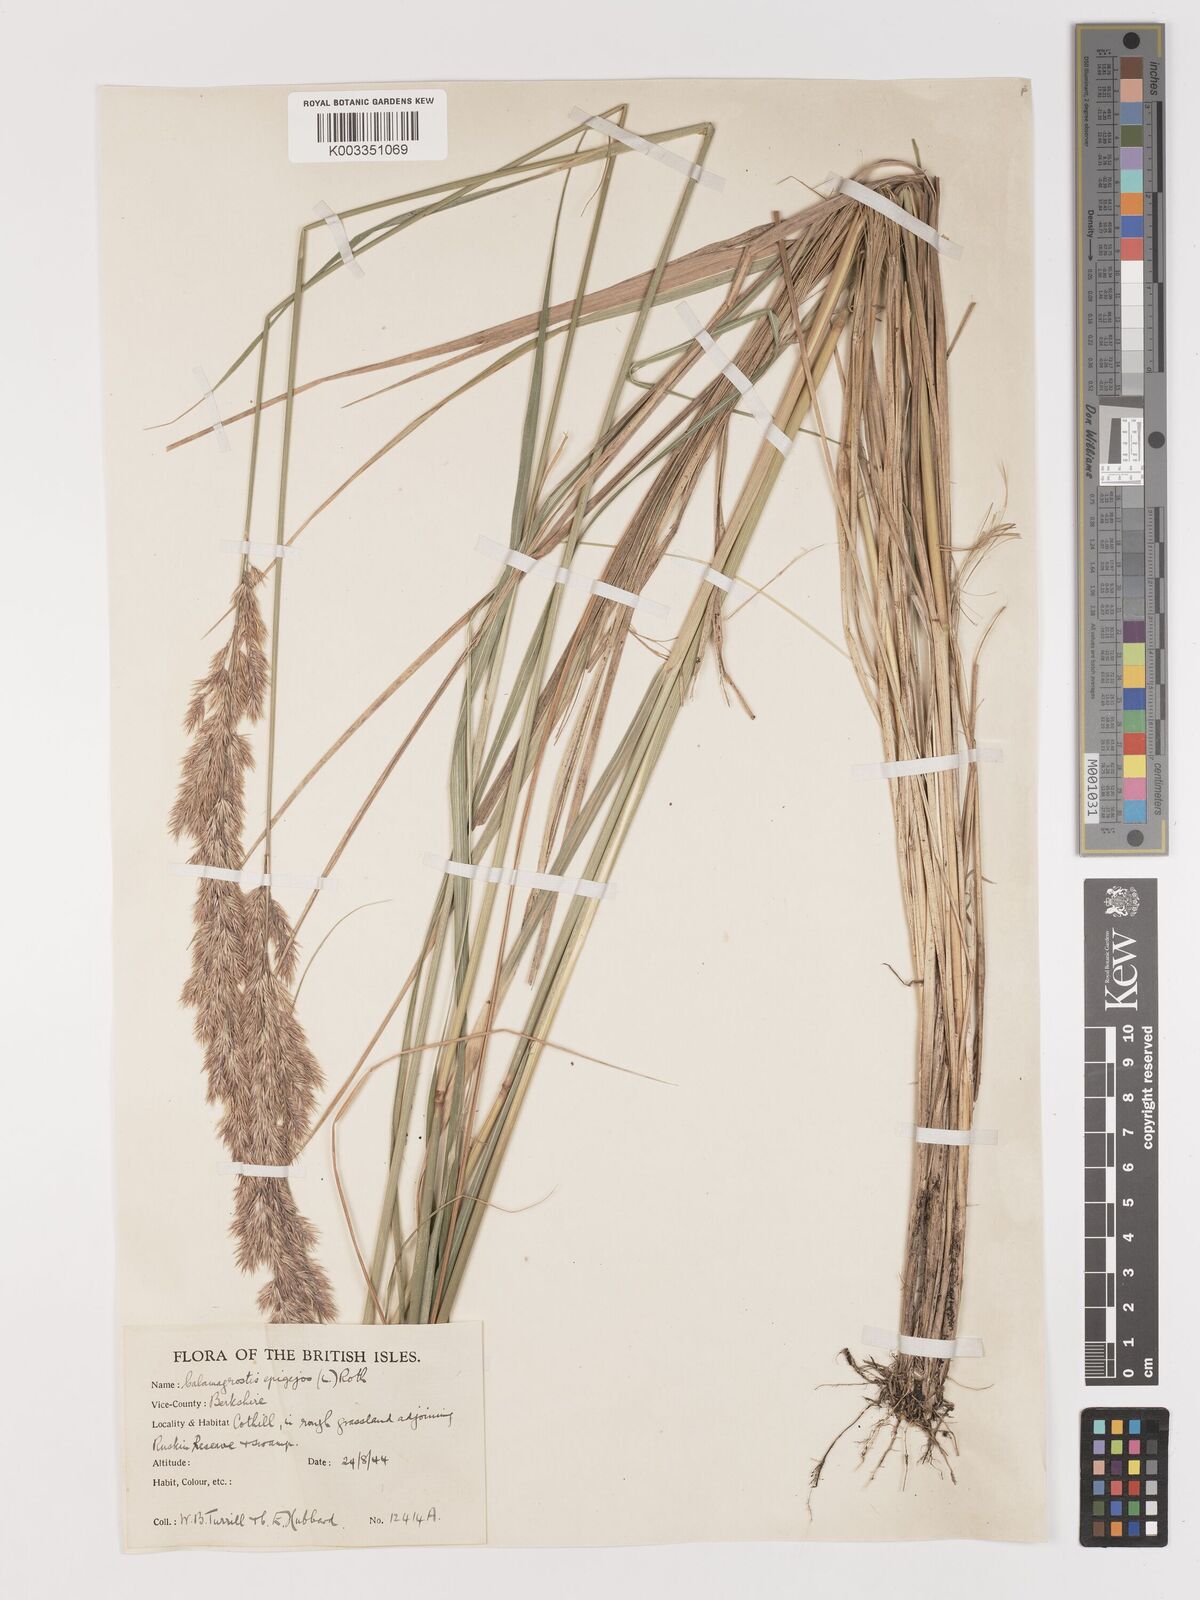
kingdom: Plantae
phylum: Tracheophyta
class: Liliopsida
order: Poales
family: Poaceae
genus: Calamagrostis
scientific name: Calamagrostis epigejos
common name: Wood small-reed
